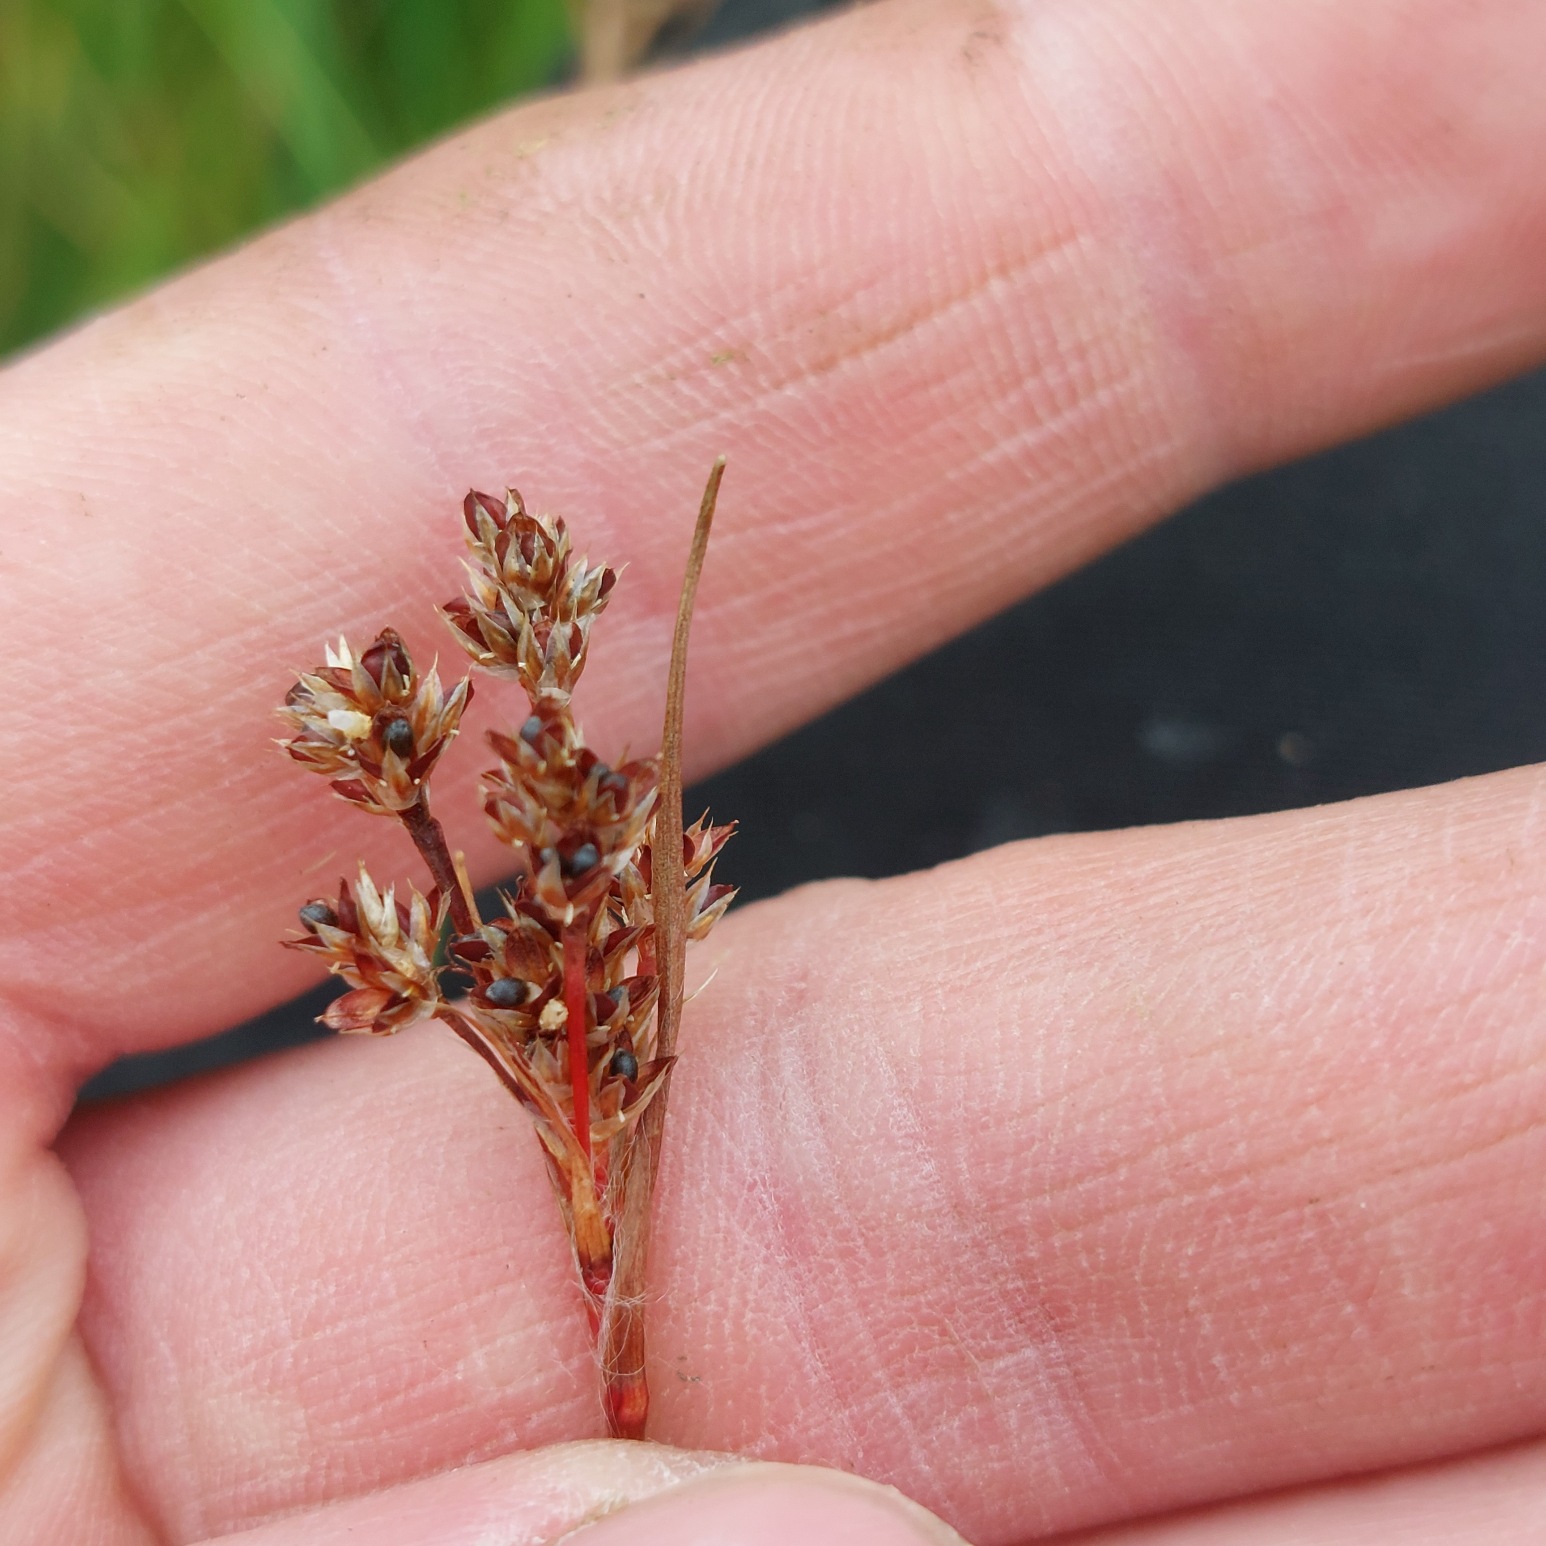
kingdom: Plantae
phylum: Tracheophyta
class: Liliopsida
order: Poales
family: Juncaceae
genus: Luzula
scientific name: Luzula multiflora
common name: Mangeblomstret frytle
